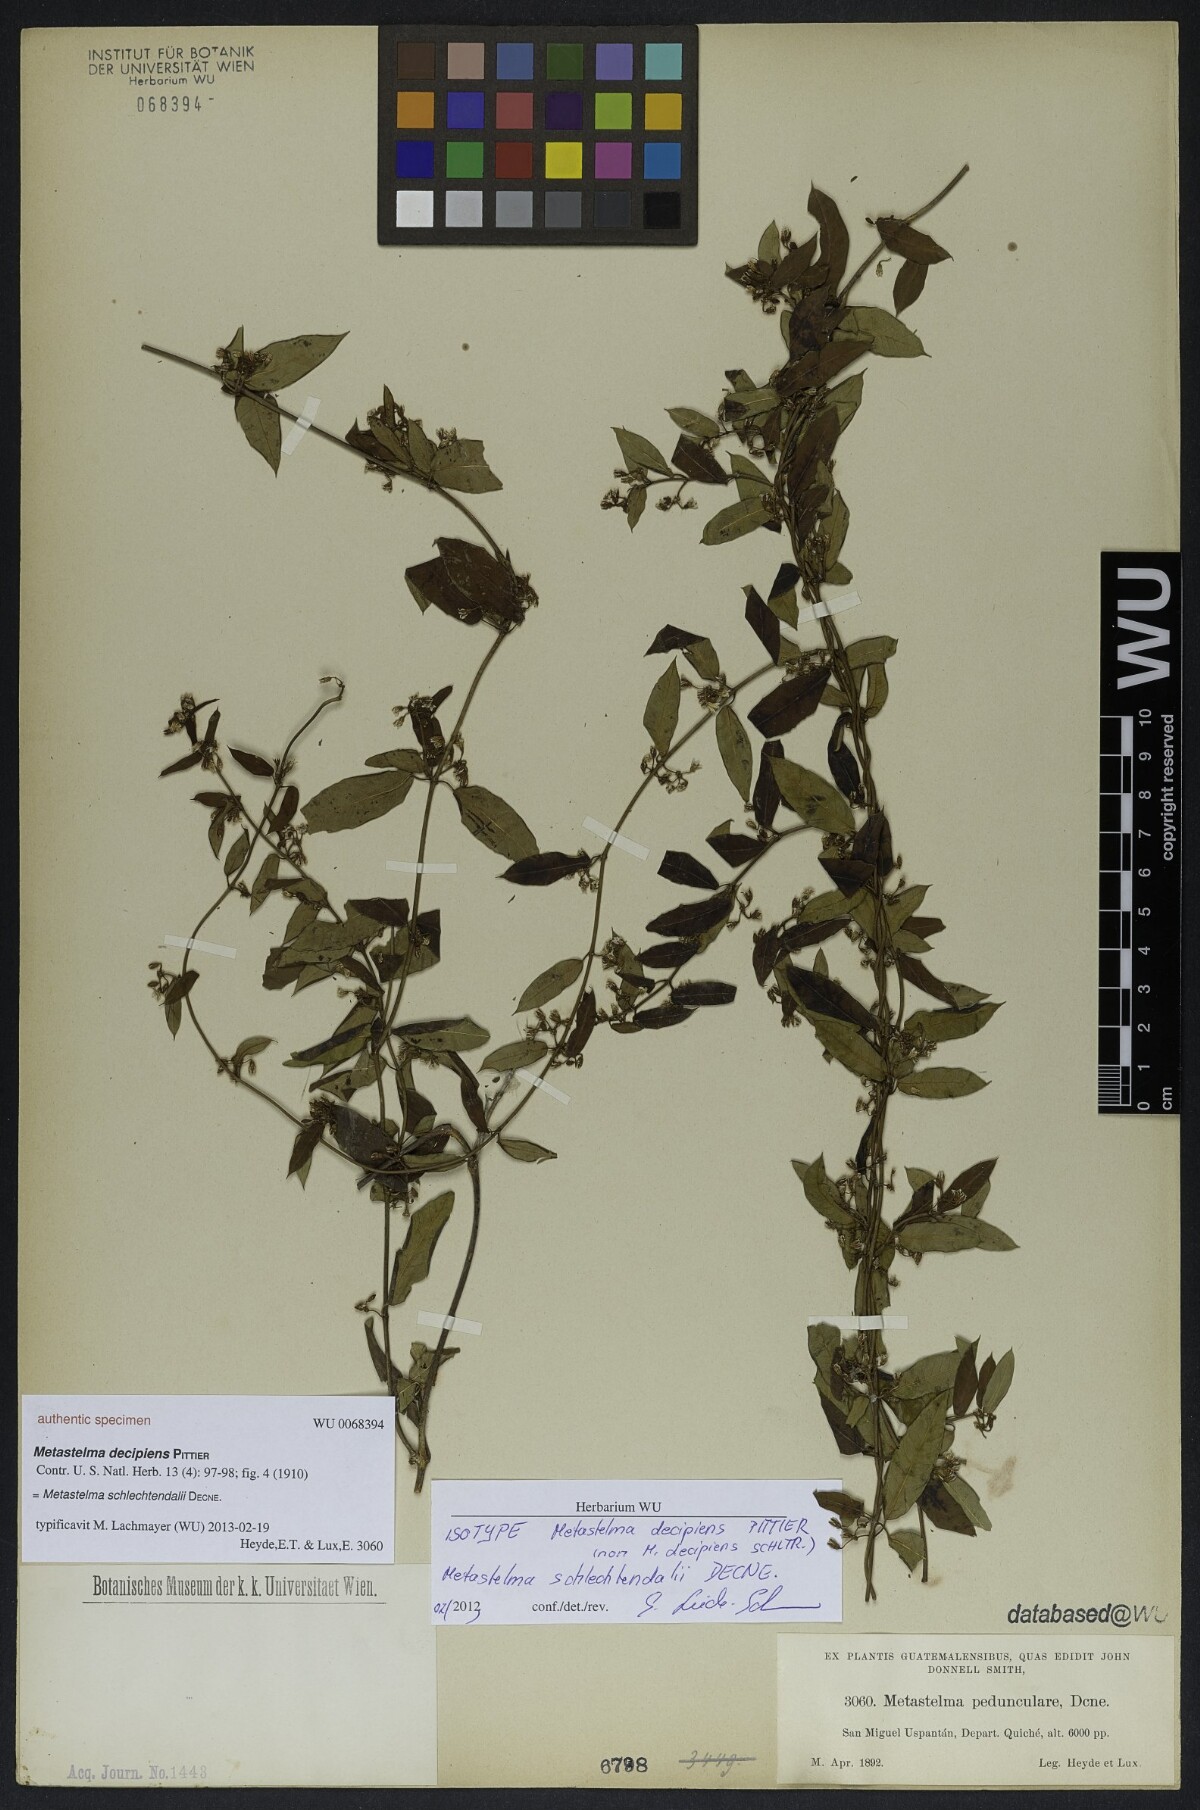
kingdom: Plantae
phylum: Tracheophyta
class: Magnoliopsida
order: Gentianales
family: Apocynaceae
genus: Metastelma
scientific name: Metastelma decipiens
